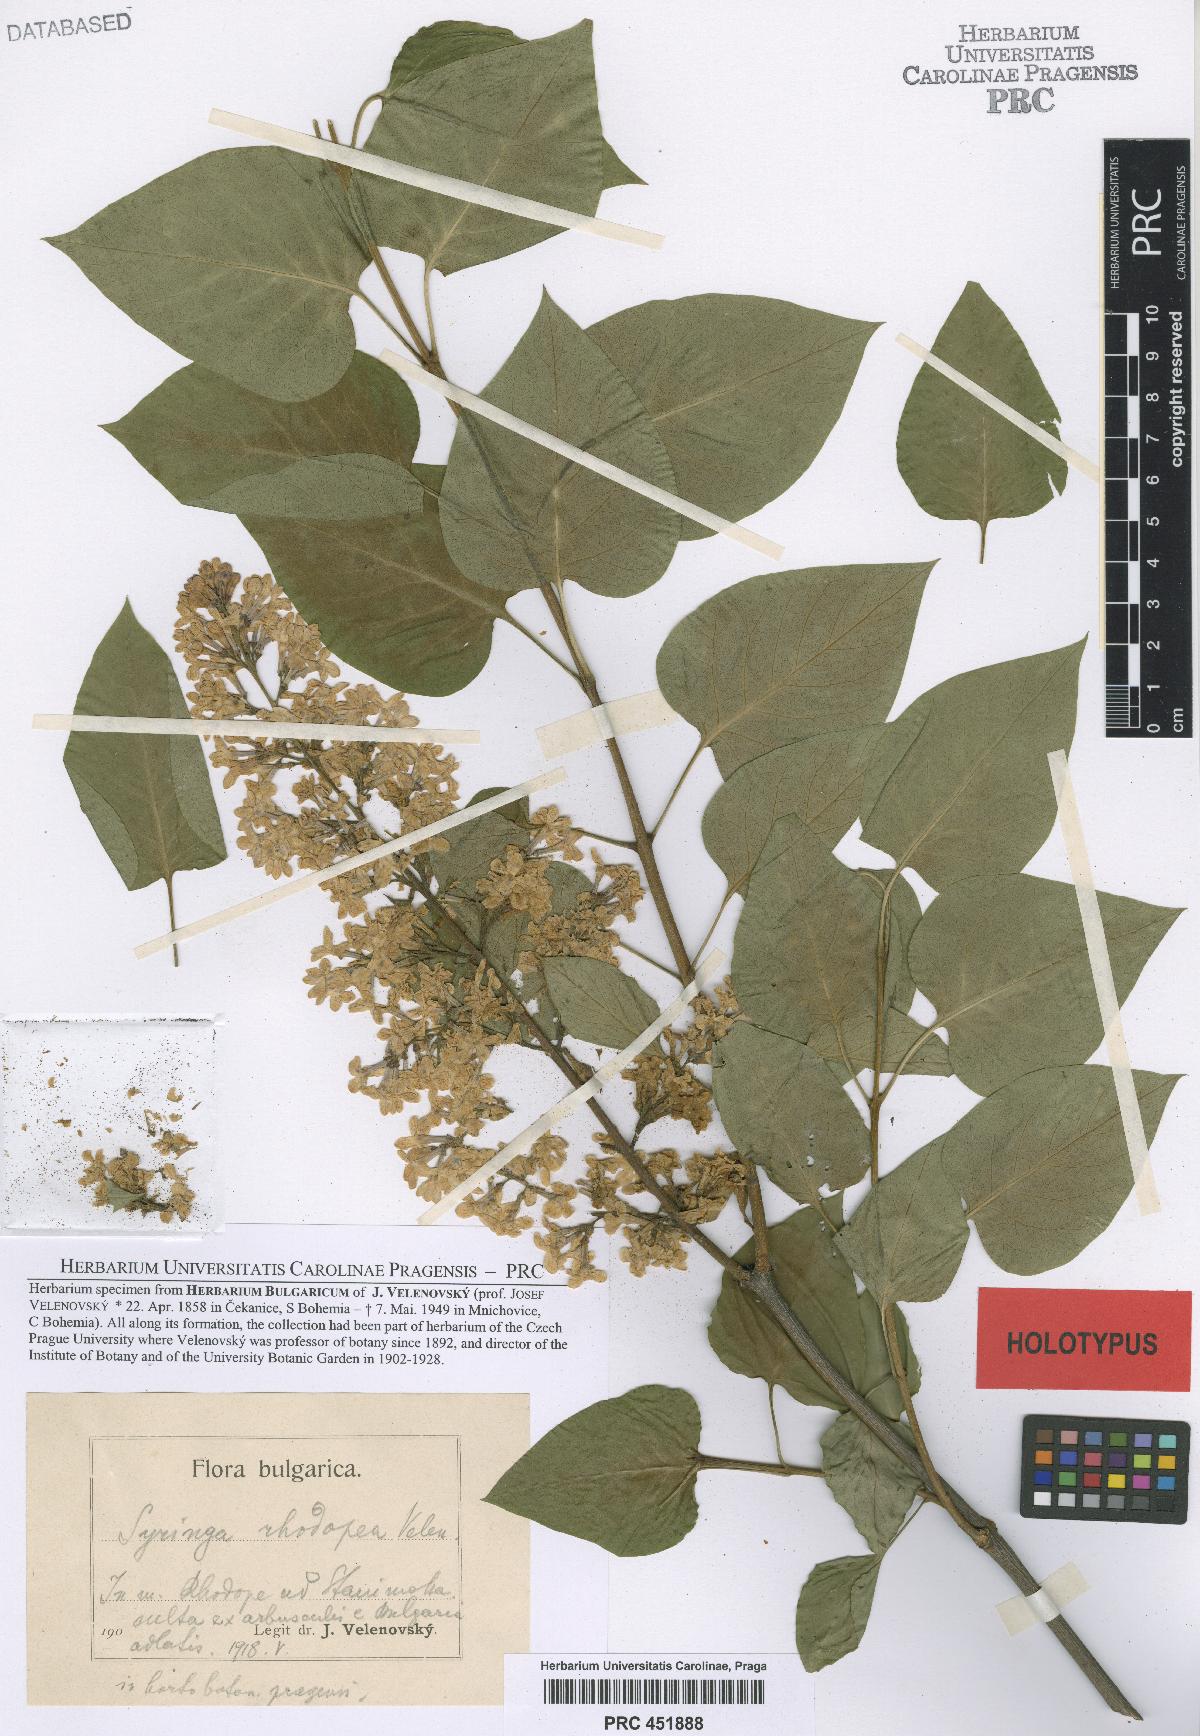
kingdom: Plantae
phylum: Tracheophyta
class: Magnoliopsida
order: Lamiales
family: Oleaceae
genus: Syringa
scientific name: Syringa vulgaris
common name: Common lilac
